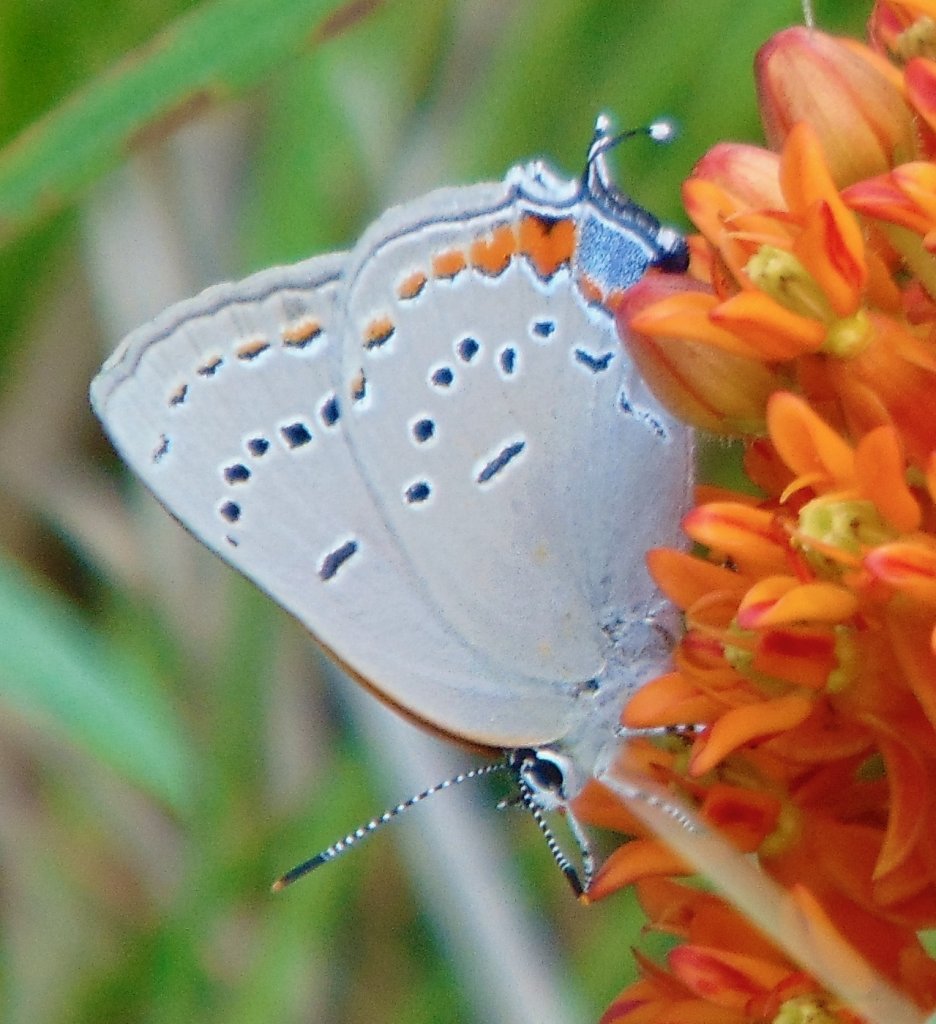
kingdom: Animalia
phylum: Arthropoda
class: Insecta
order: Lepidoptera
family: Lycaenidae
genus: Strymon
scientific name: Strymon acadica
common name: Acadian Hairstreak
